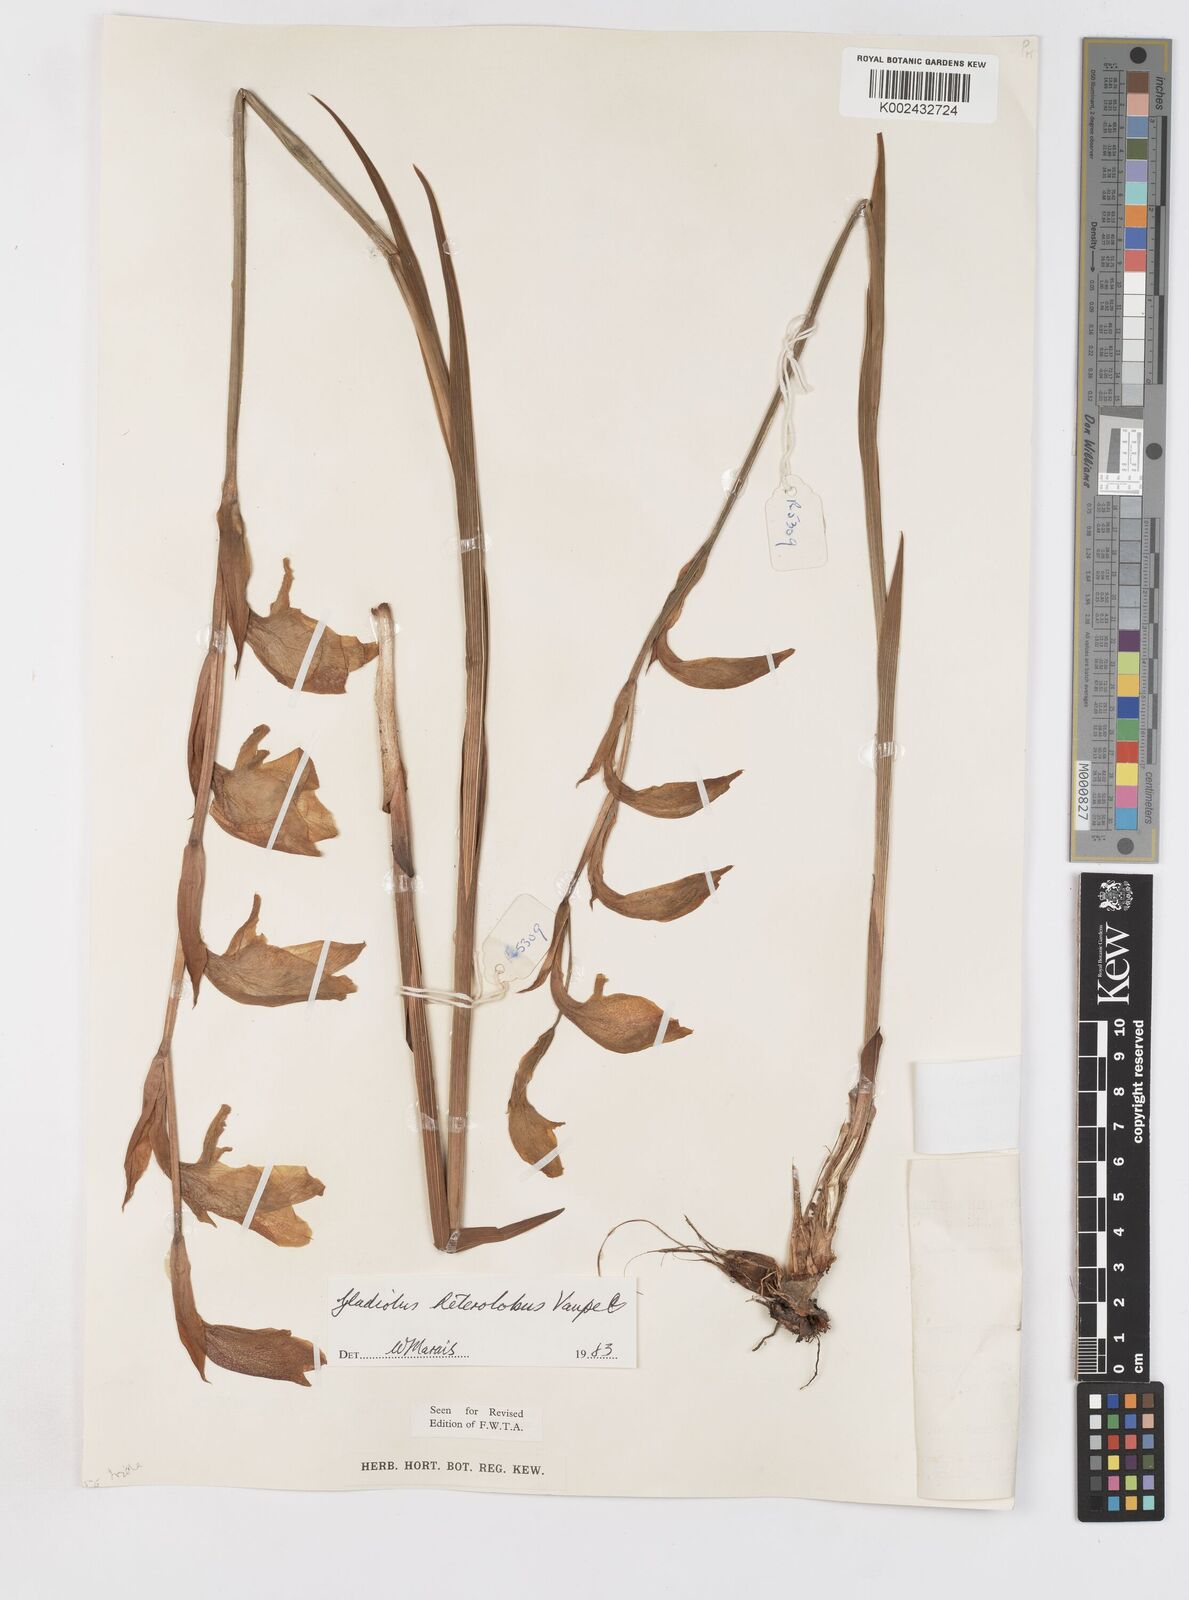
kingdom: Plantae
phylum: Tracheophyta
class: Liliopsida
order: Asparagales
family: Iridaceae
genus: Gladiolus
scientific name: Gladiolus dalenii
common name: Cornflag
